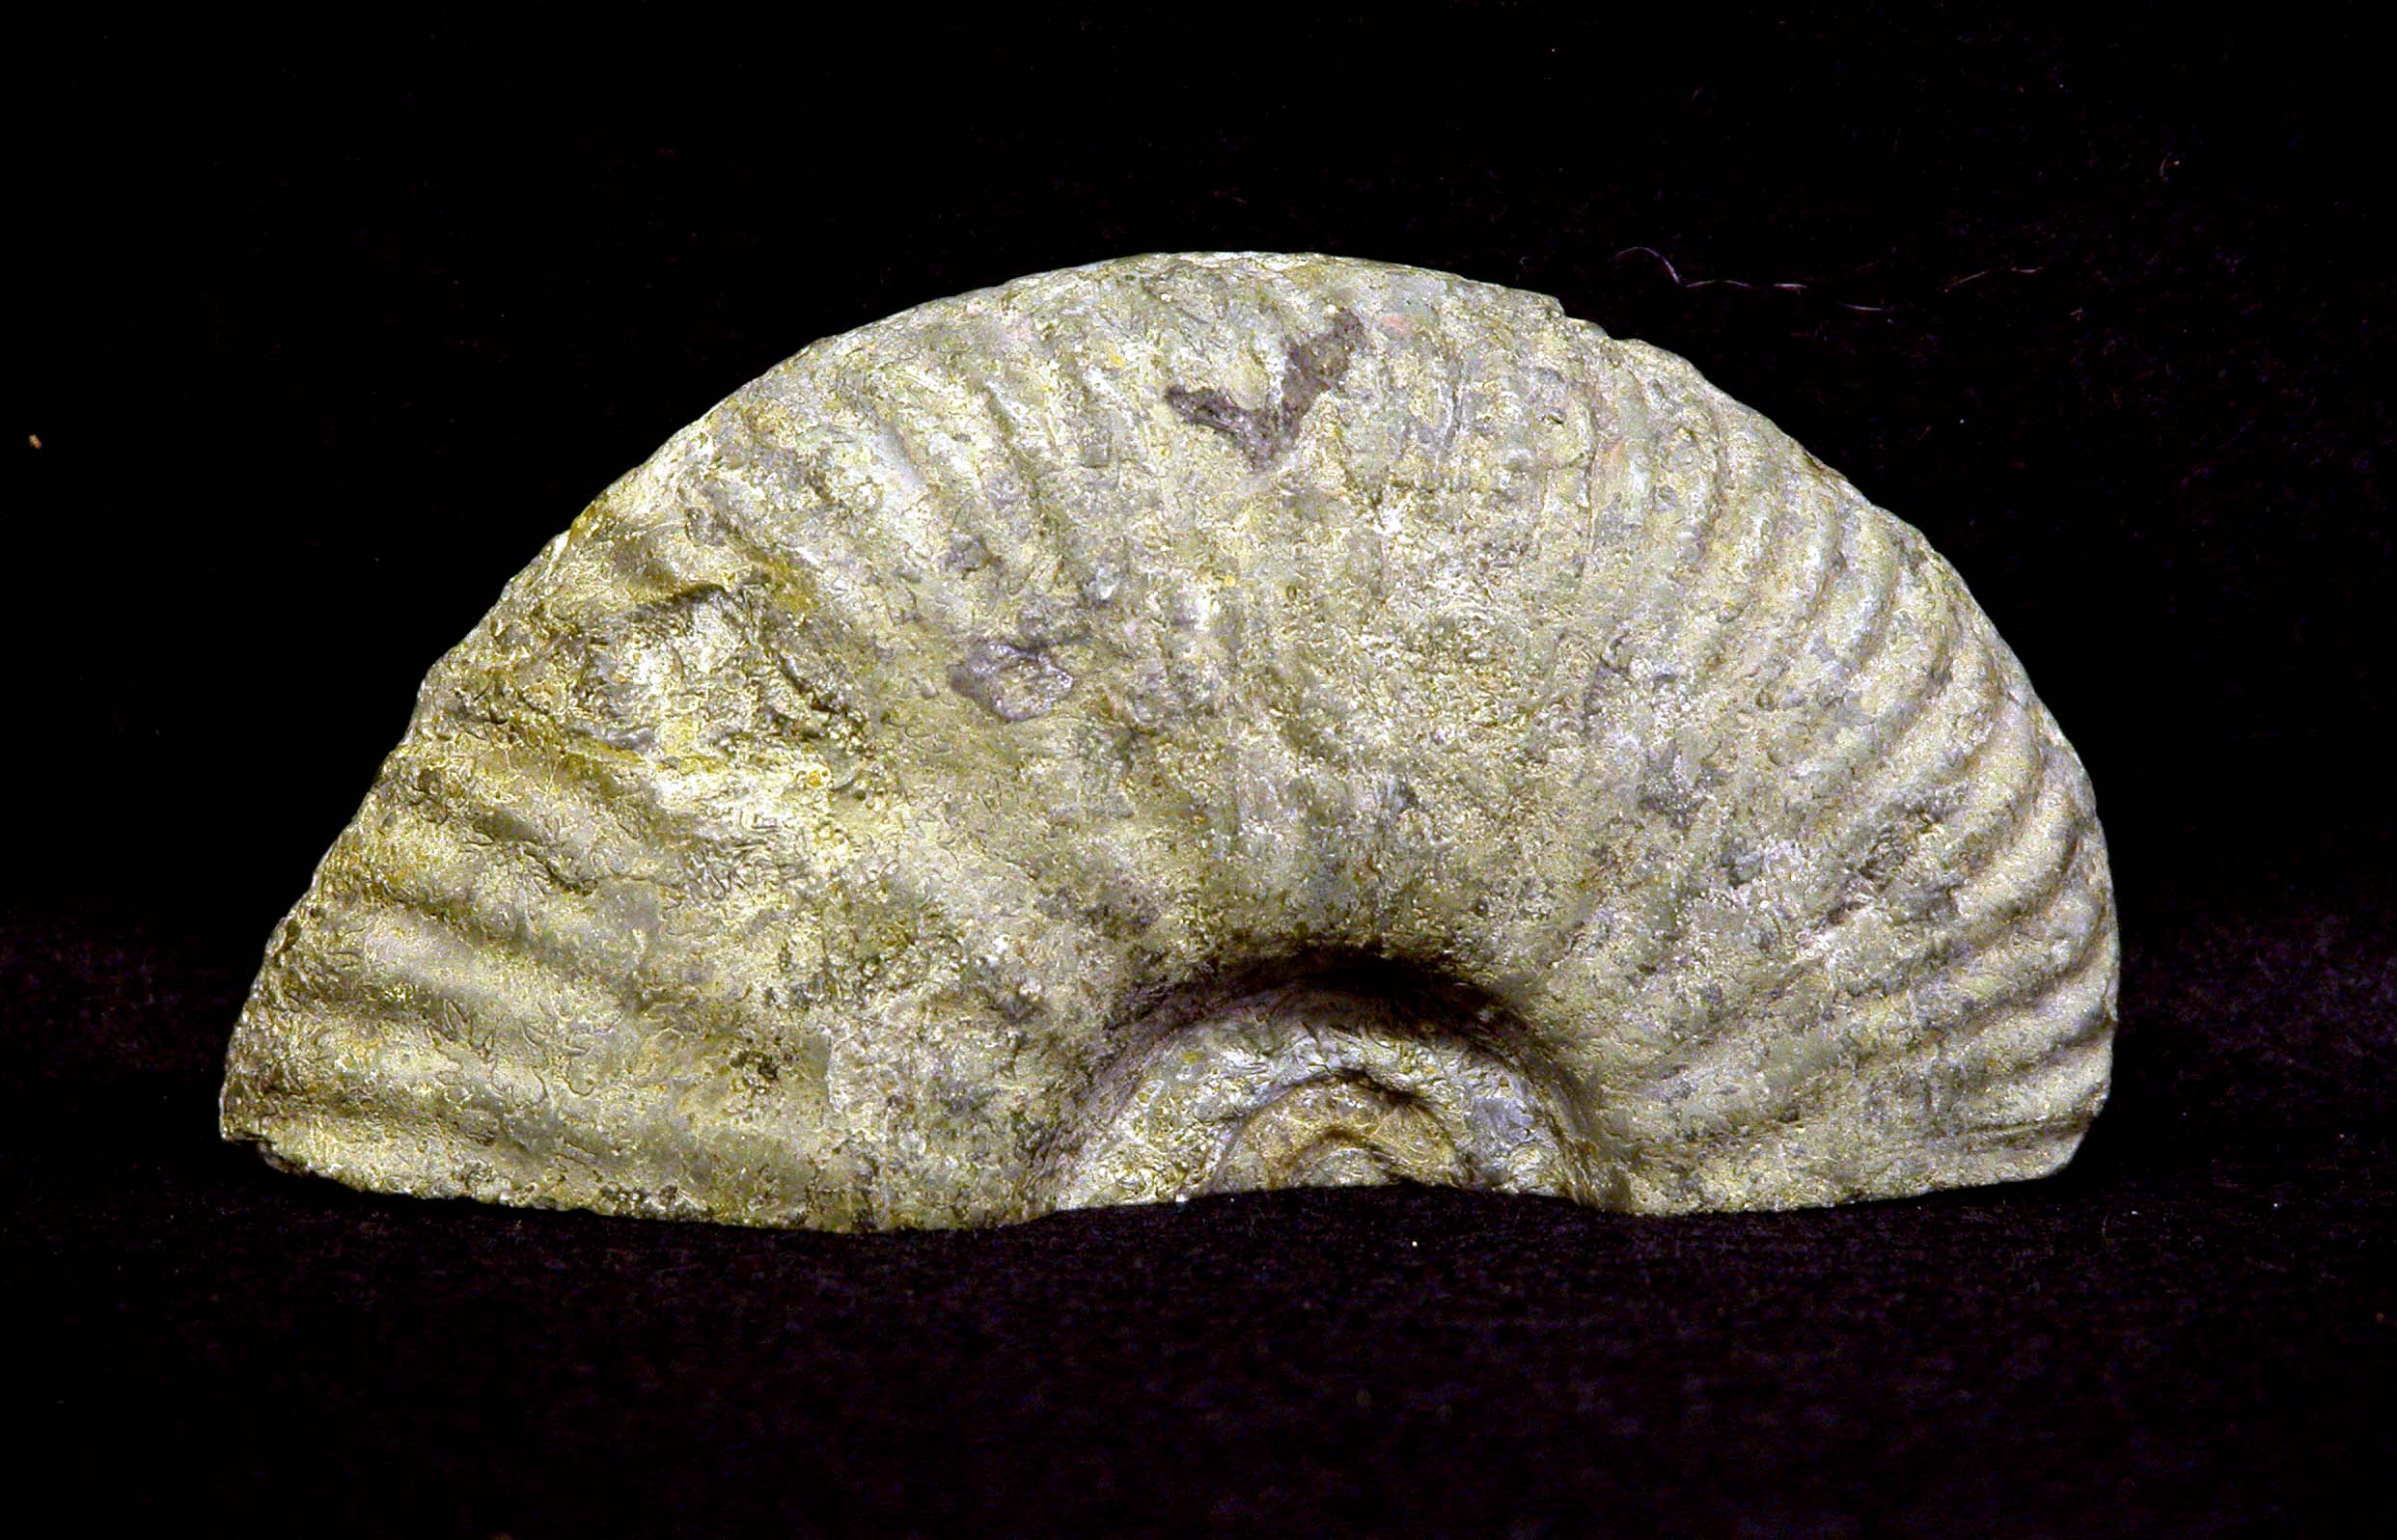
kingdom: Animalia
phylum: Mollusca
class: Cephalopoda
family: Hammatoceratidae
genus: Hammatoceras
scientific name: Hammatoceras
